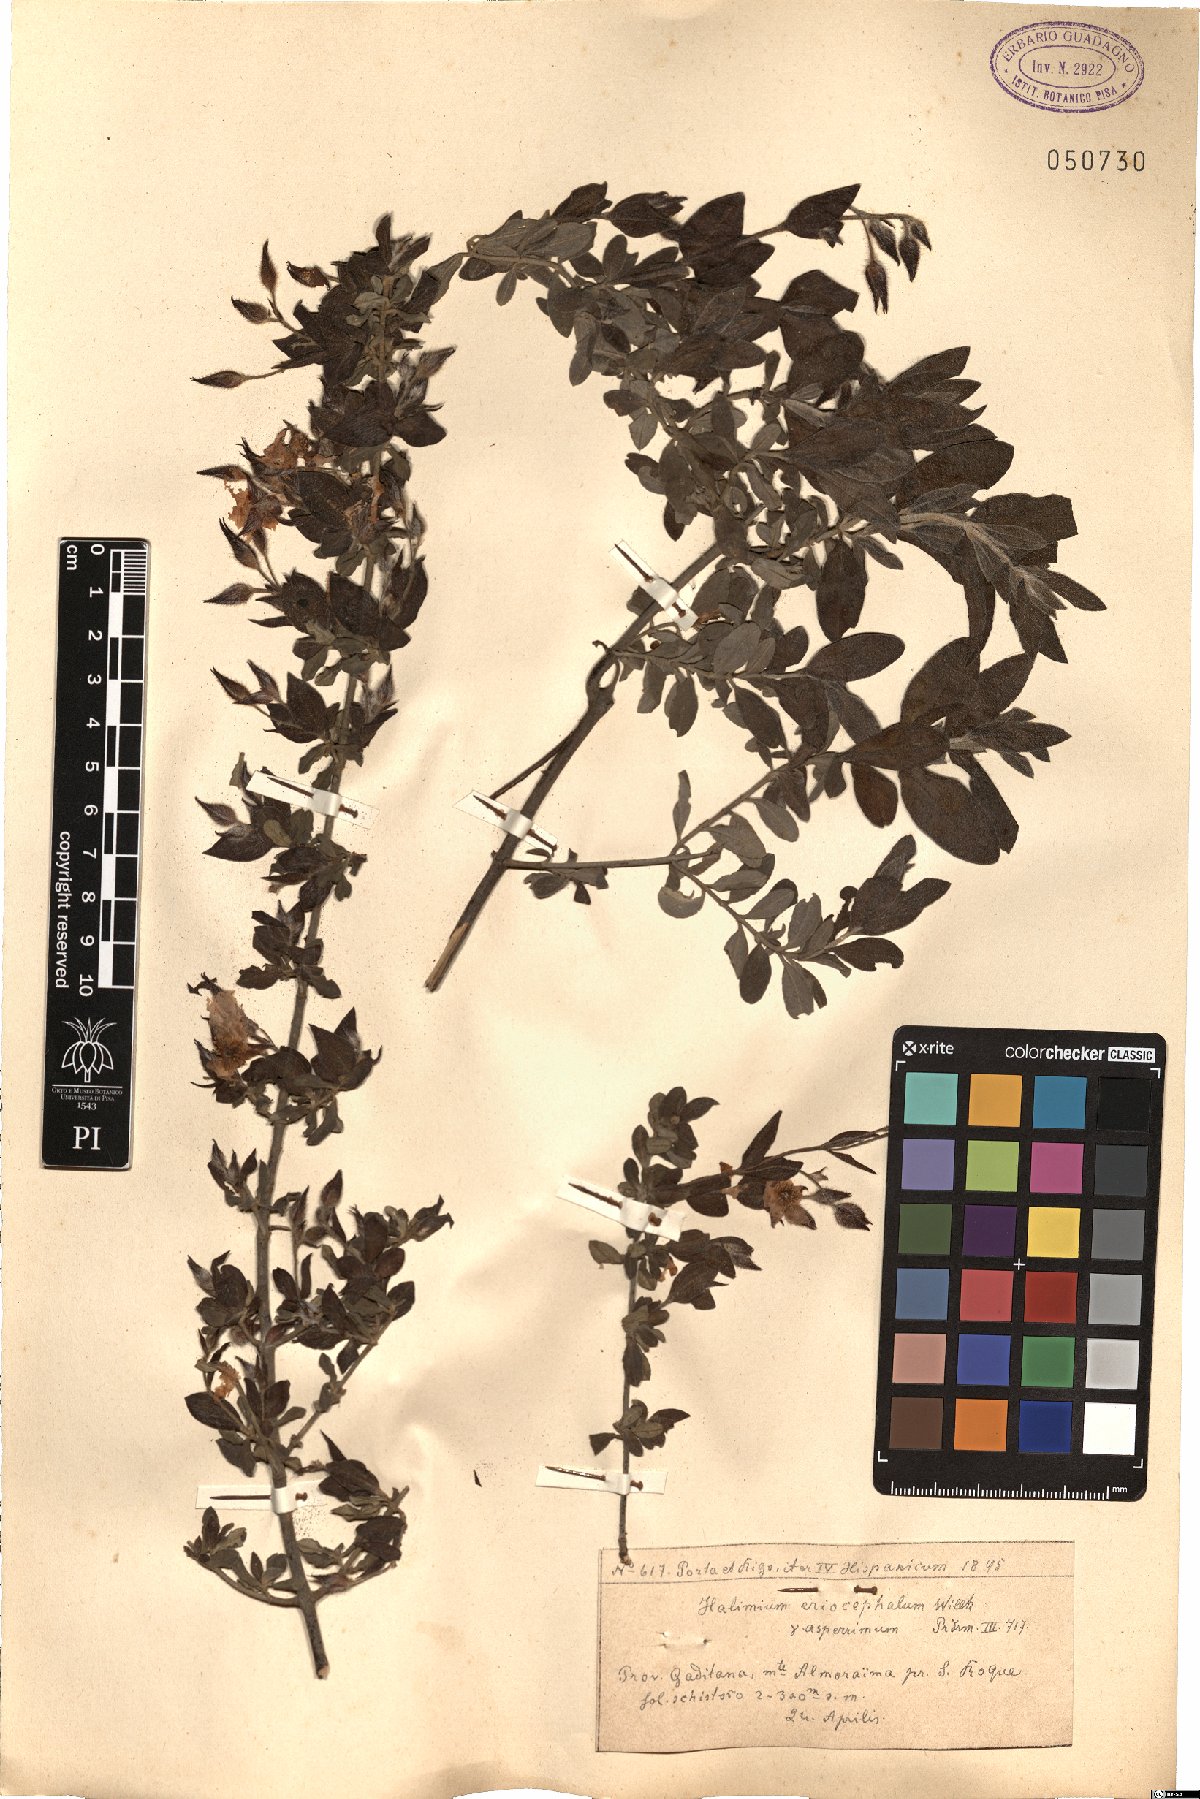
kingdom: Plantae
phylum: Tracheophyta
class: Magnoliopsida
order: Malvales
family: Cistaceae
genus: Halimium
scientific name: Halimium lasianthum
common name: Lisbon false sun-rose
